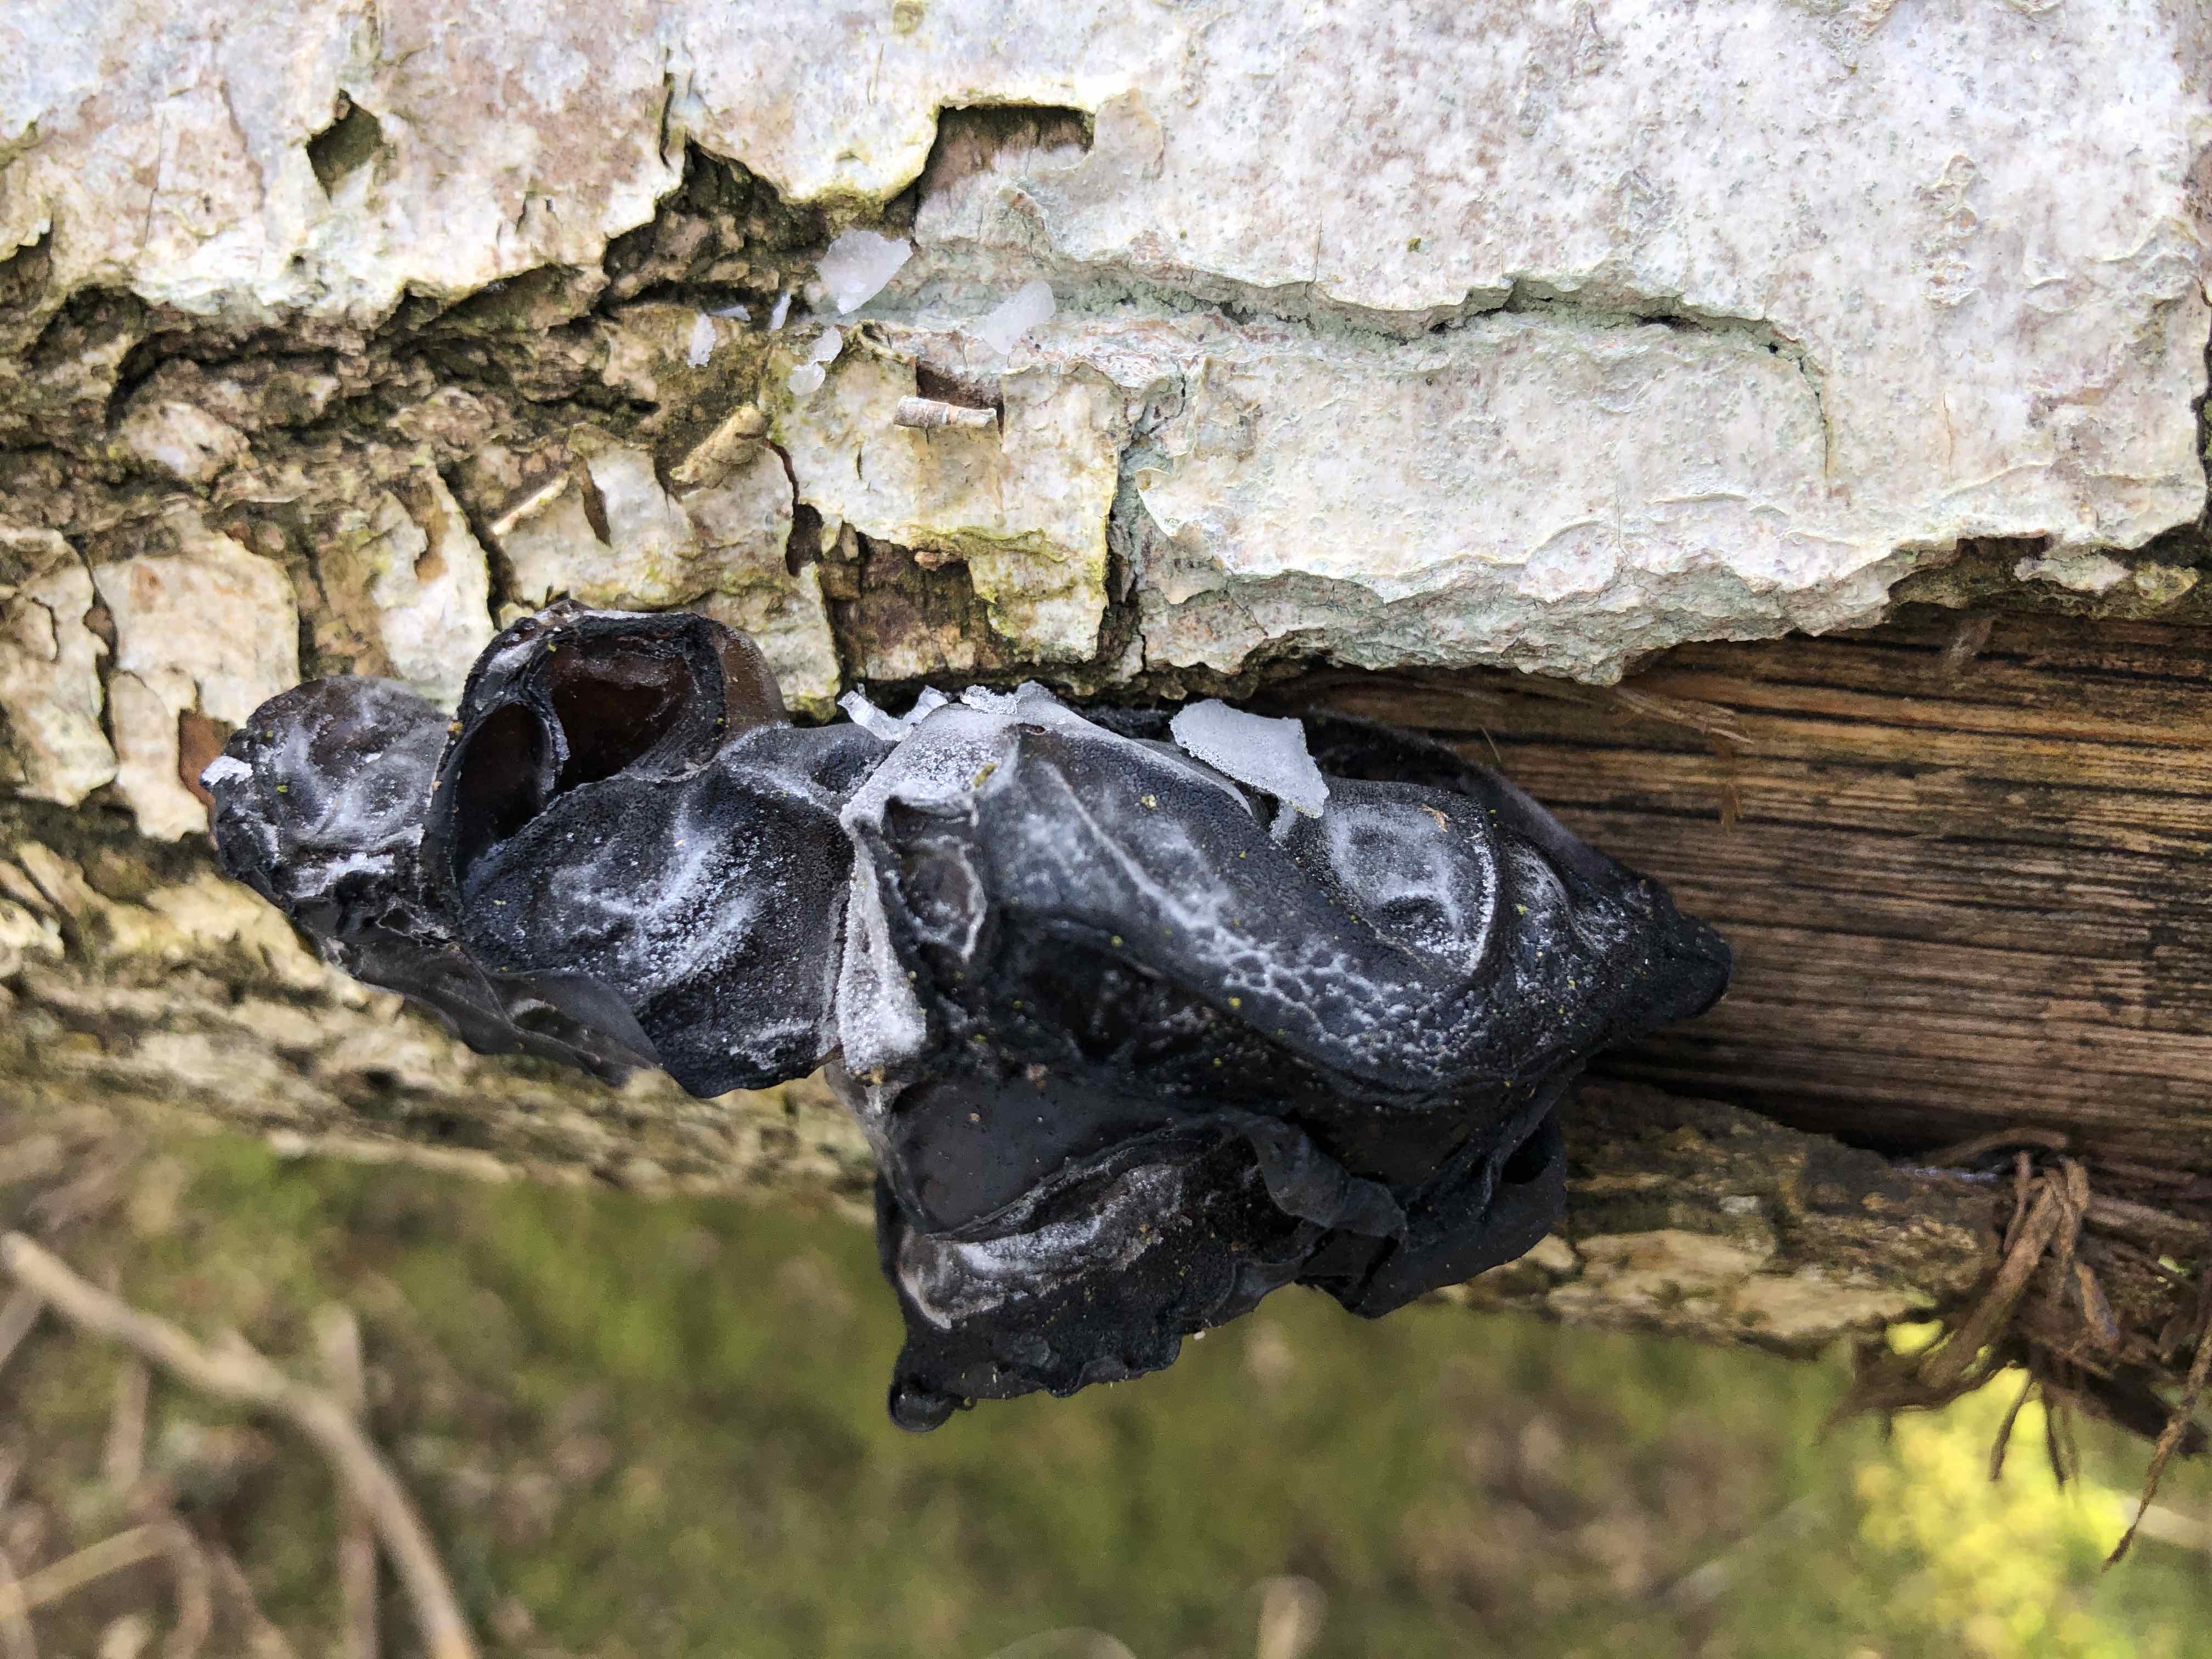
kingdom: Fungi
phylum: Basidiomycota
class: Agaricomycetes
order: Auriculariales
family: Auriculariaceae
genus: Exidia
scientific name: Exidia glandulosa
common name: ege-bævretop
